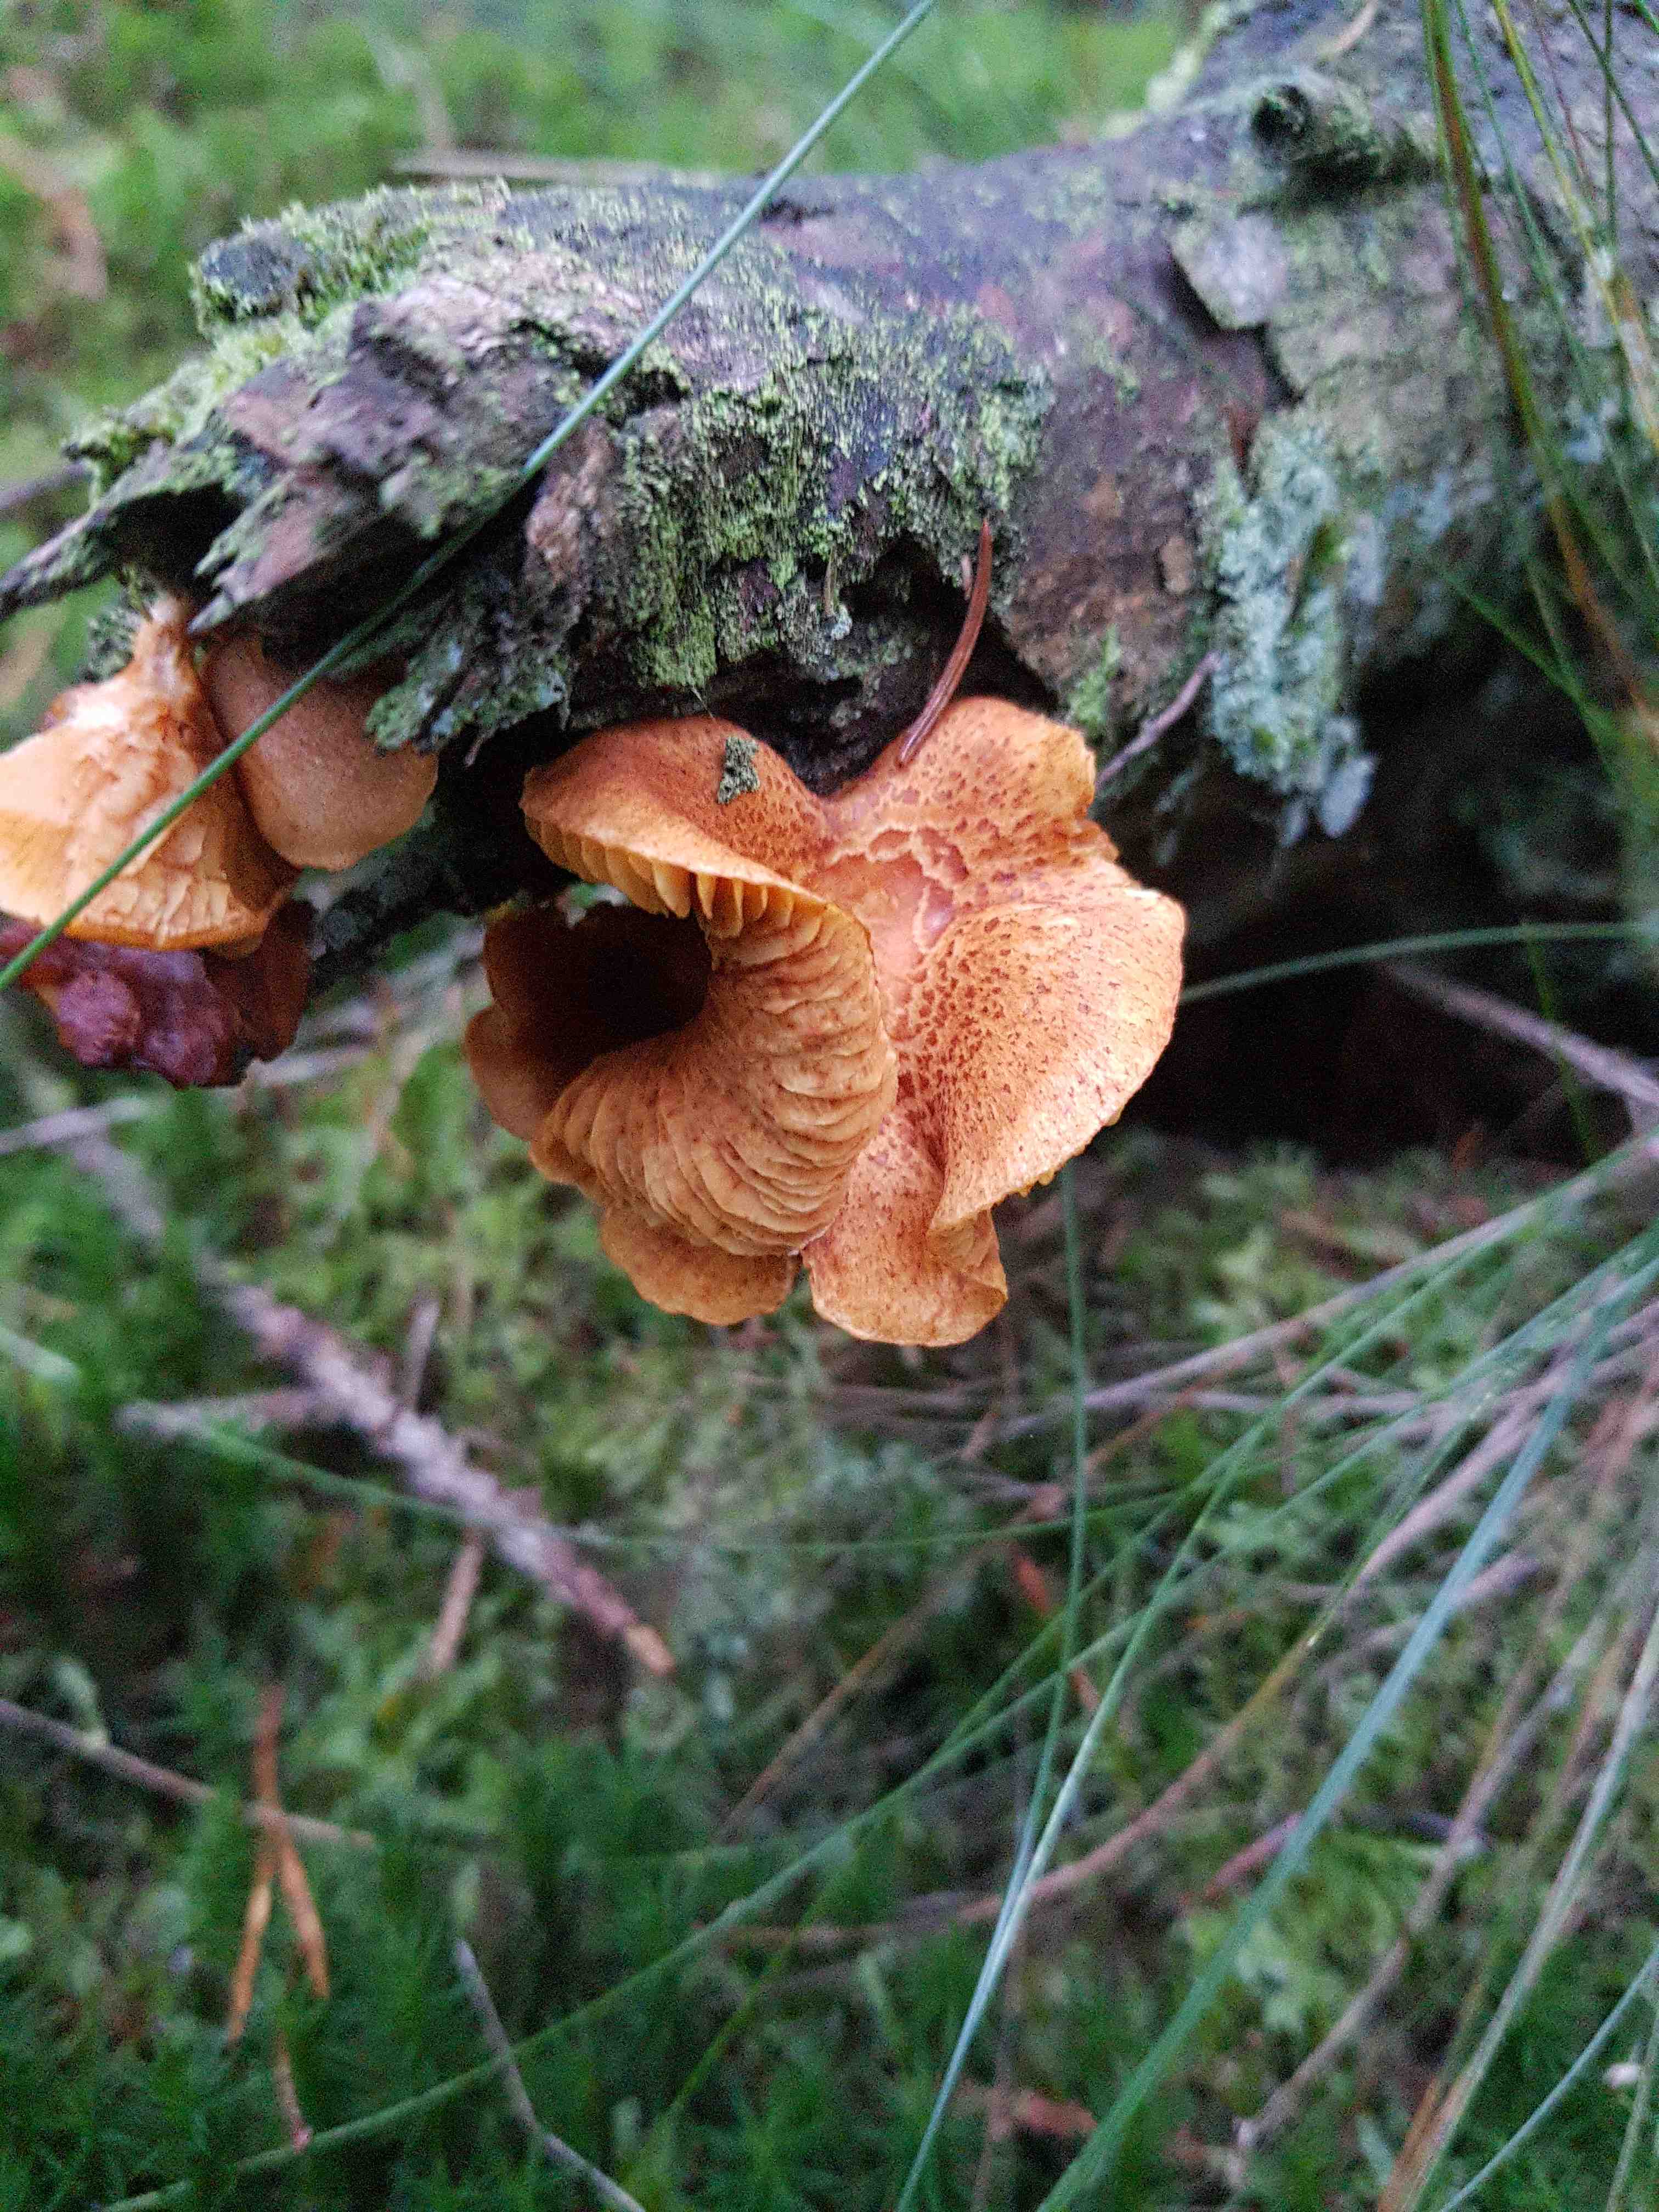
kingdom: Fungi
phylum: Basidiomycota
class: Agaricomycetes
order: Agaricales
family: Tricholomataceae
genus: Tricholomopsis
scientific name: Tricholomopsis rutilans
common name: purpur-væbnerhat
